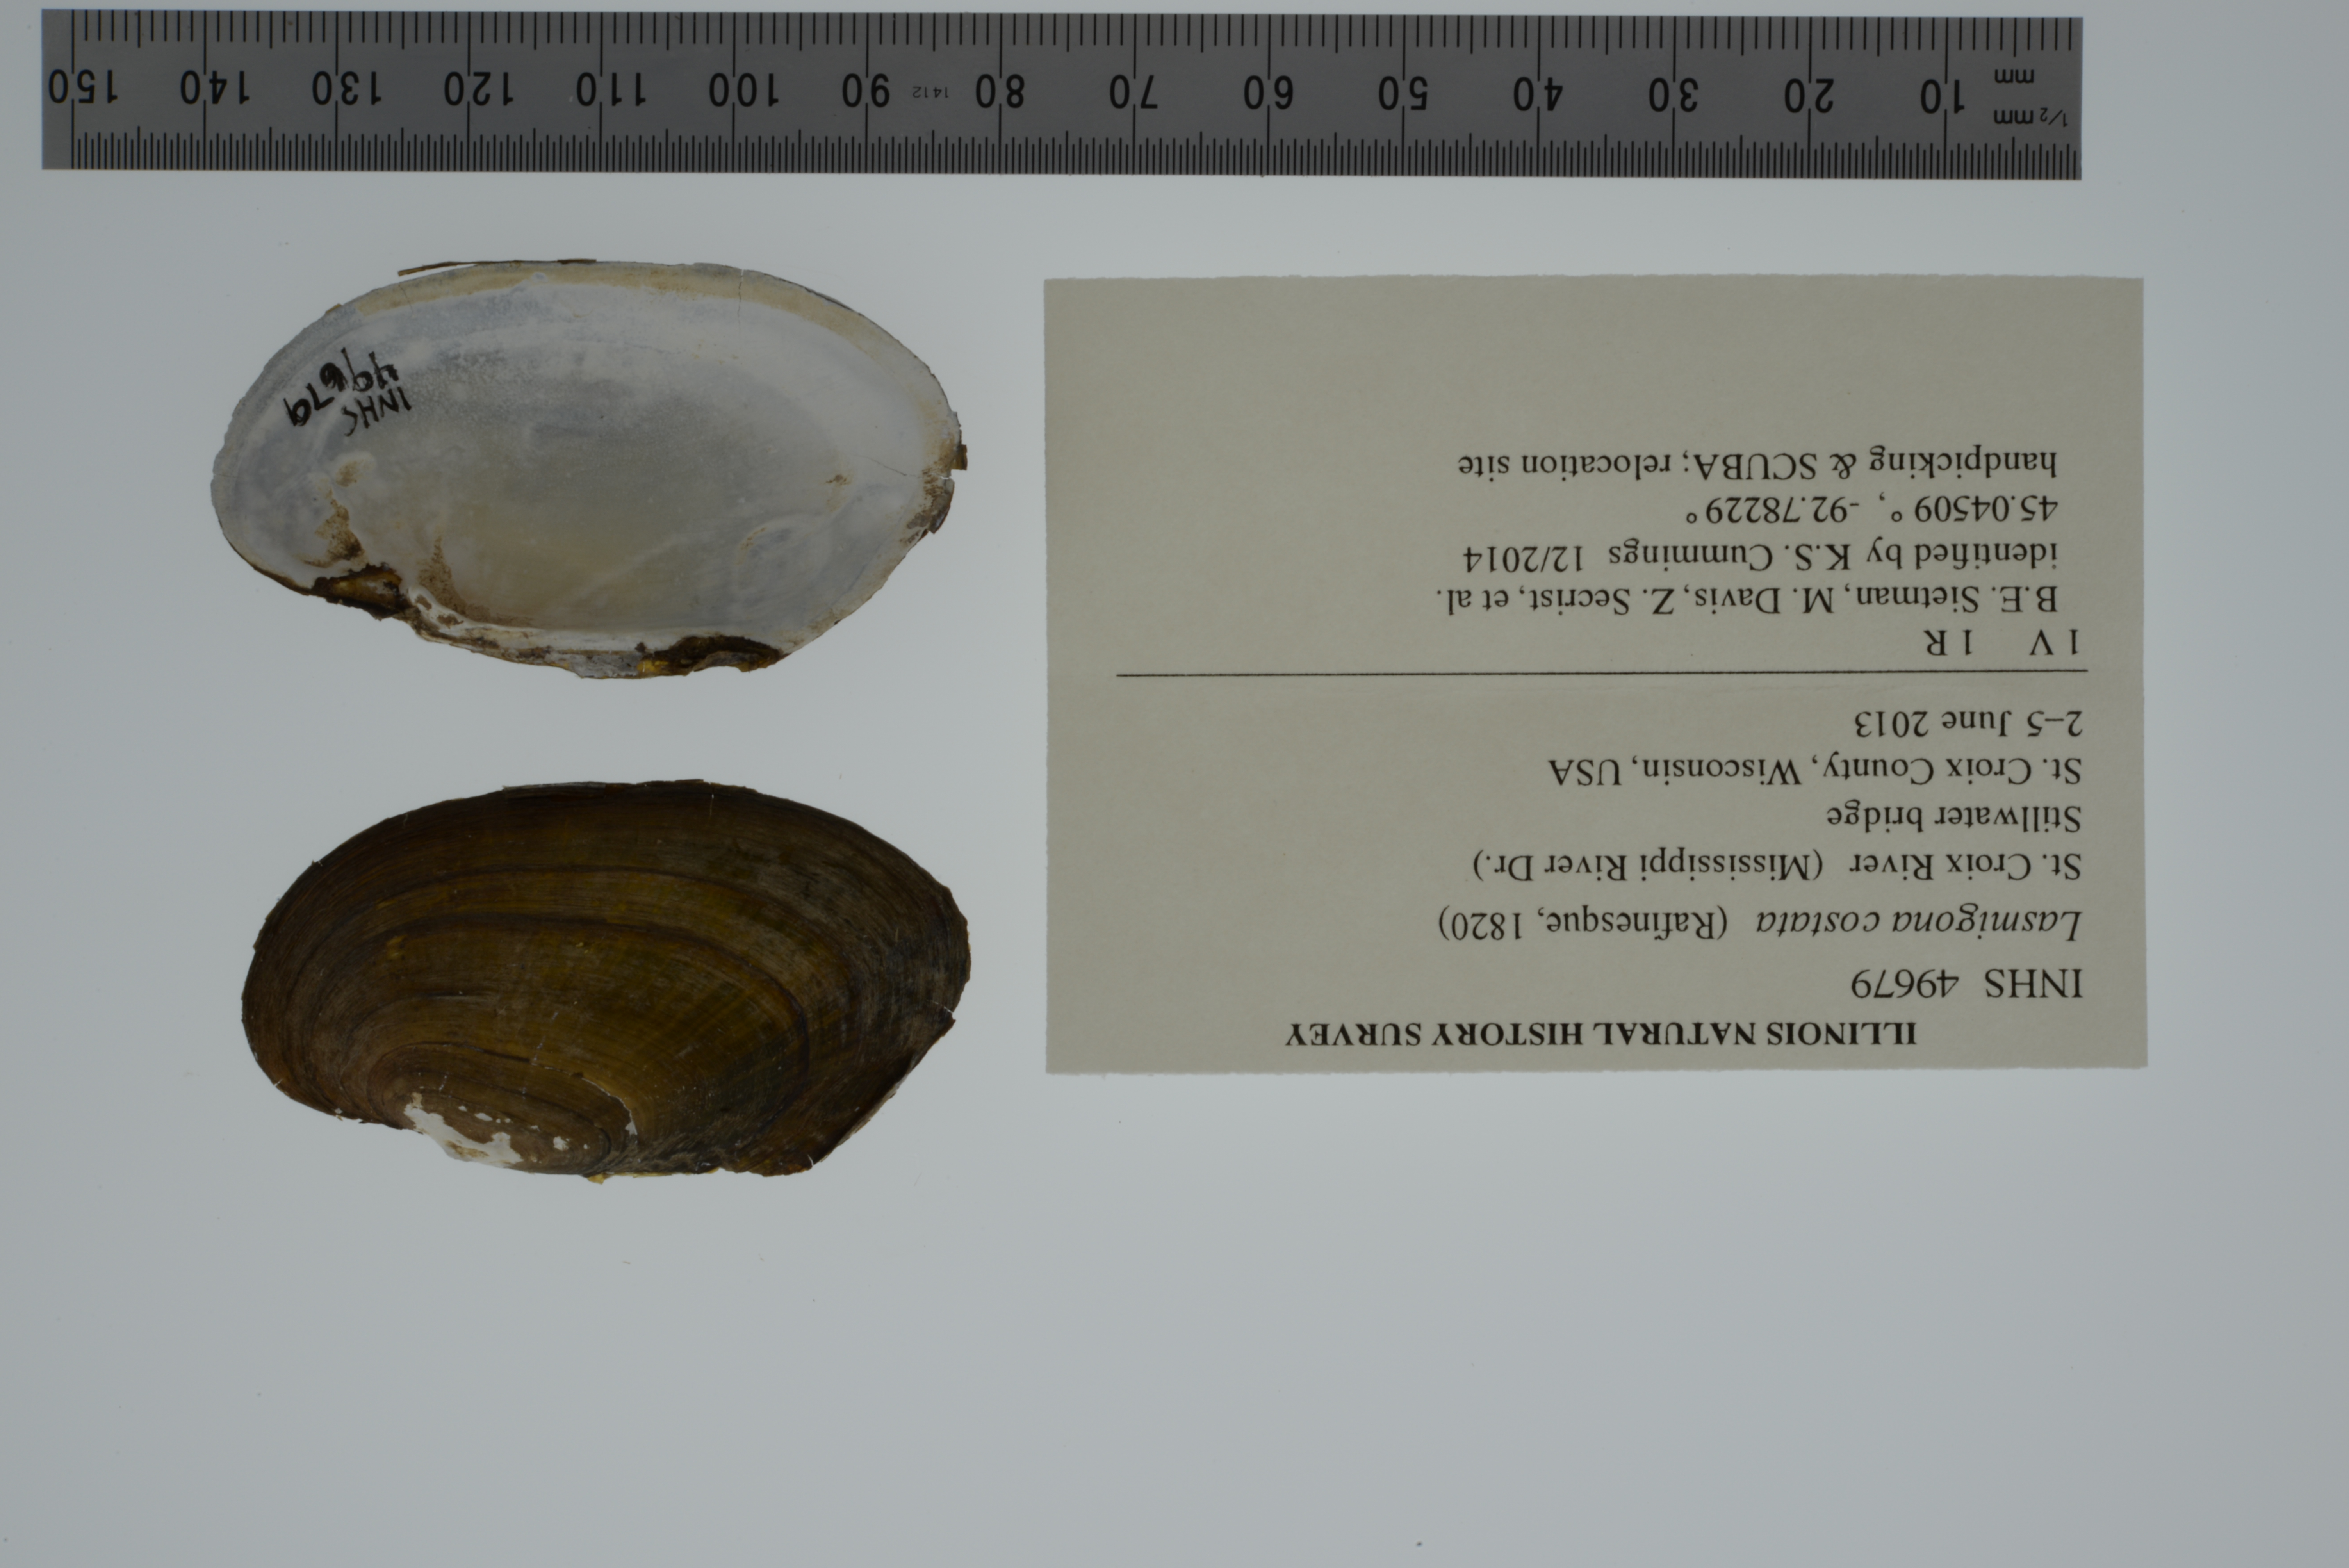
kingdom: Animalia
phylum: Mollusca
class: Bivalvia
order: Unionida
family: Unionidae
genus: Lasmigona
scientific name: Lasmigona costata
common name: Flutedshell
